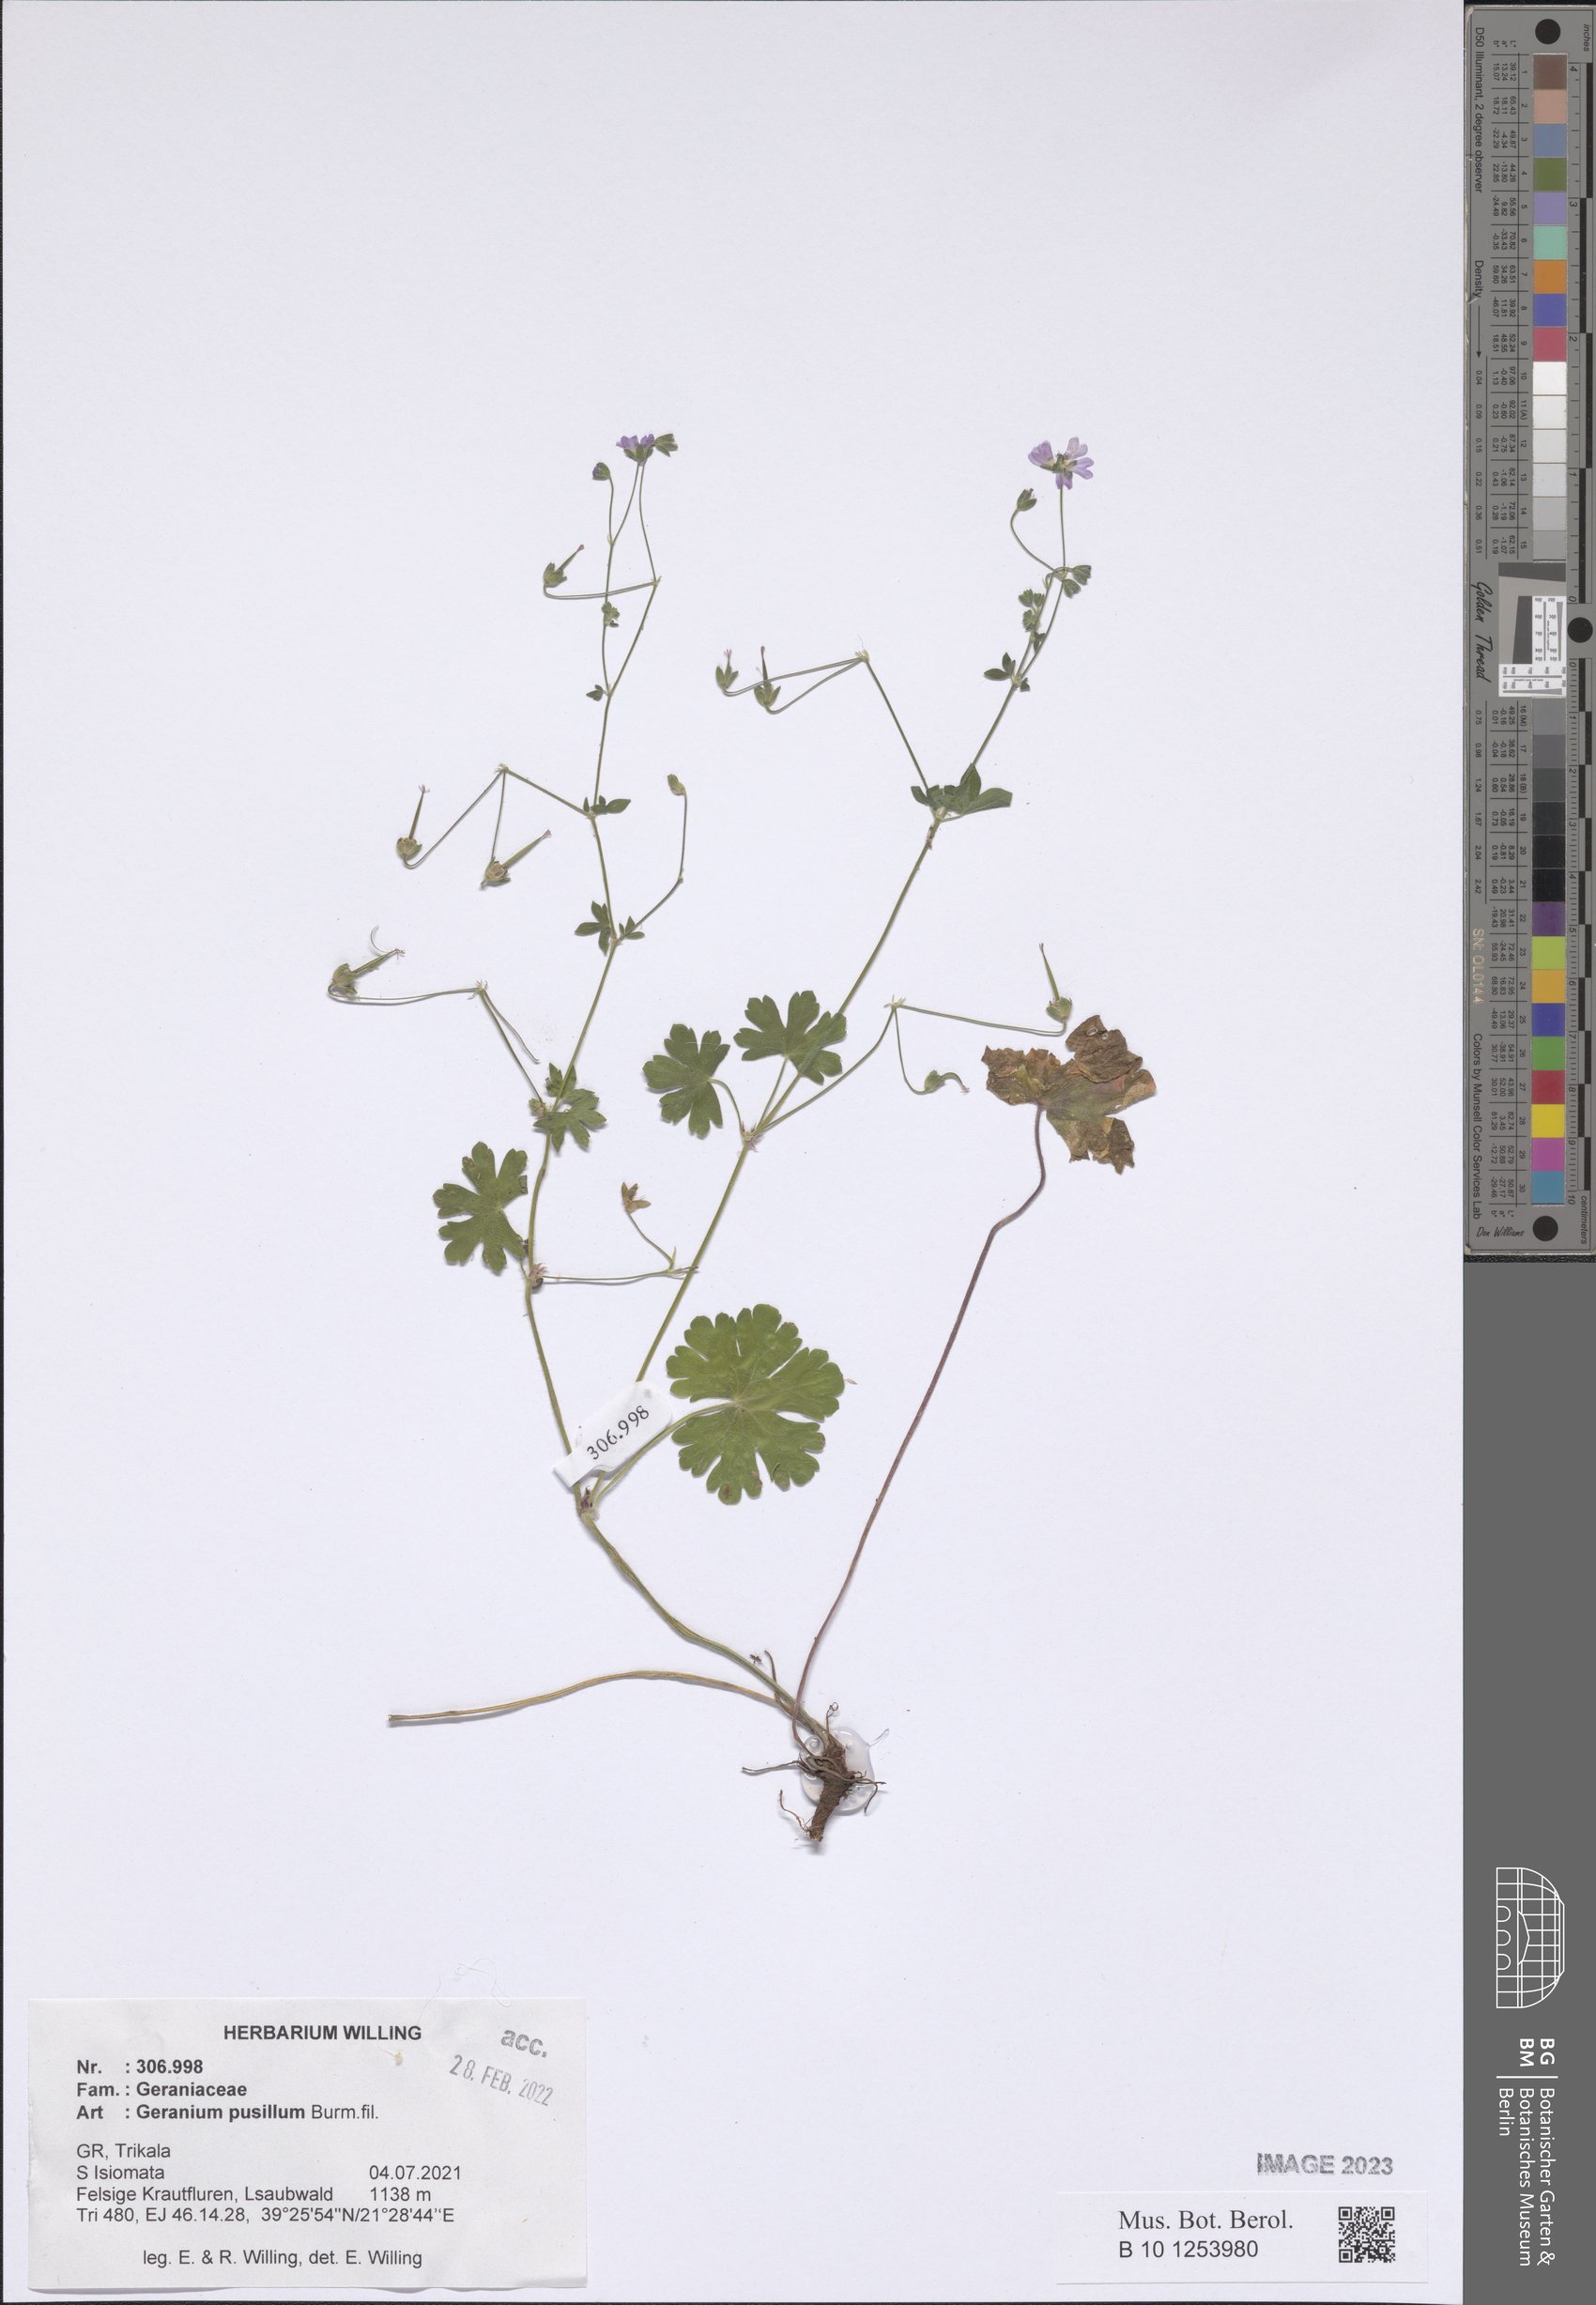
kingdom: Plantae
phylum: Tracheophyta
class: Magnoliopsida
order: Geraniales
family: Geraniaceae
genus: Geranium
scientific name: Geranium pusillum
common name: Small geranium
